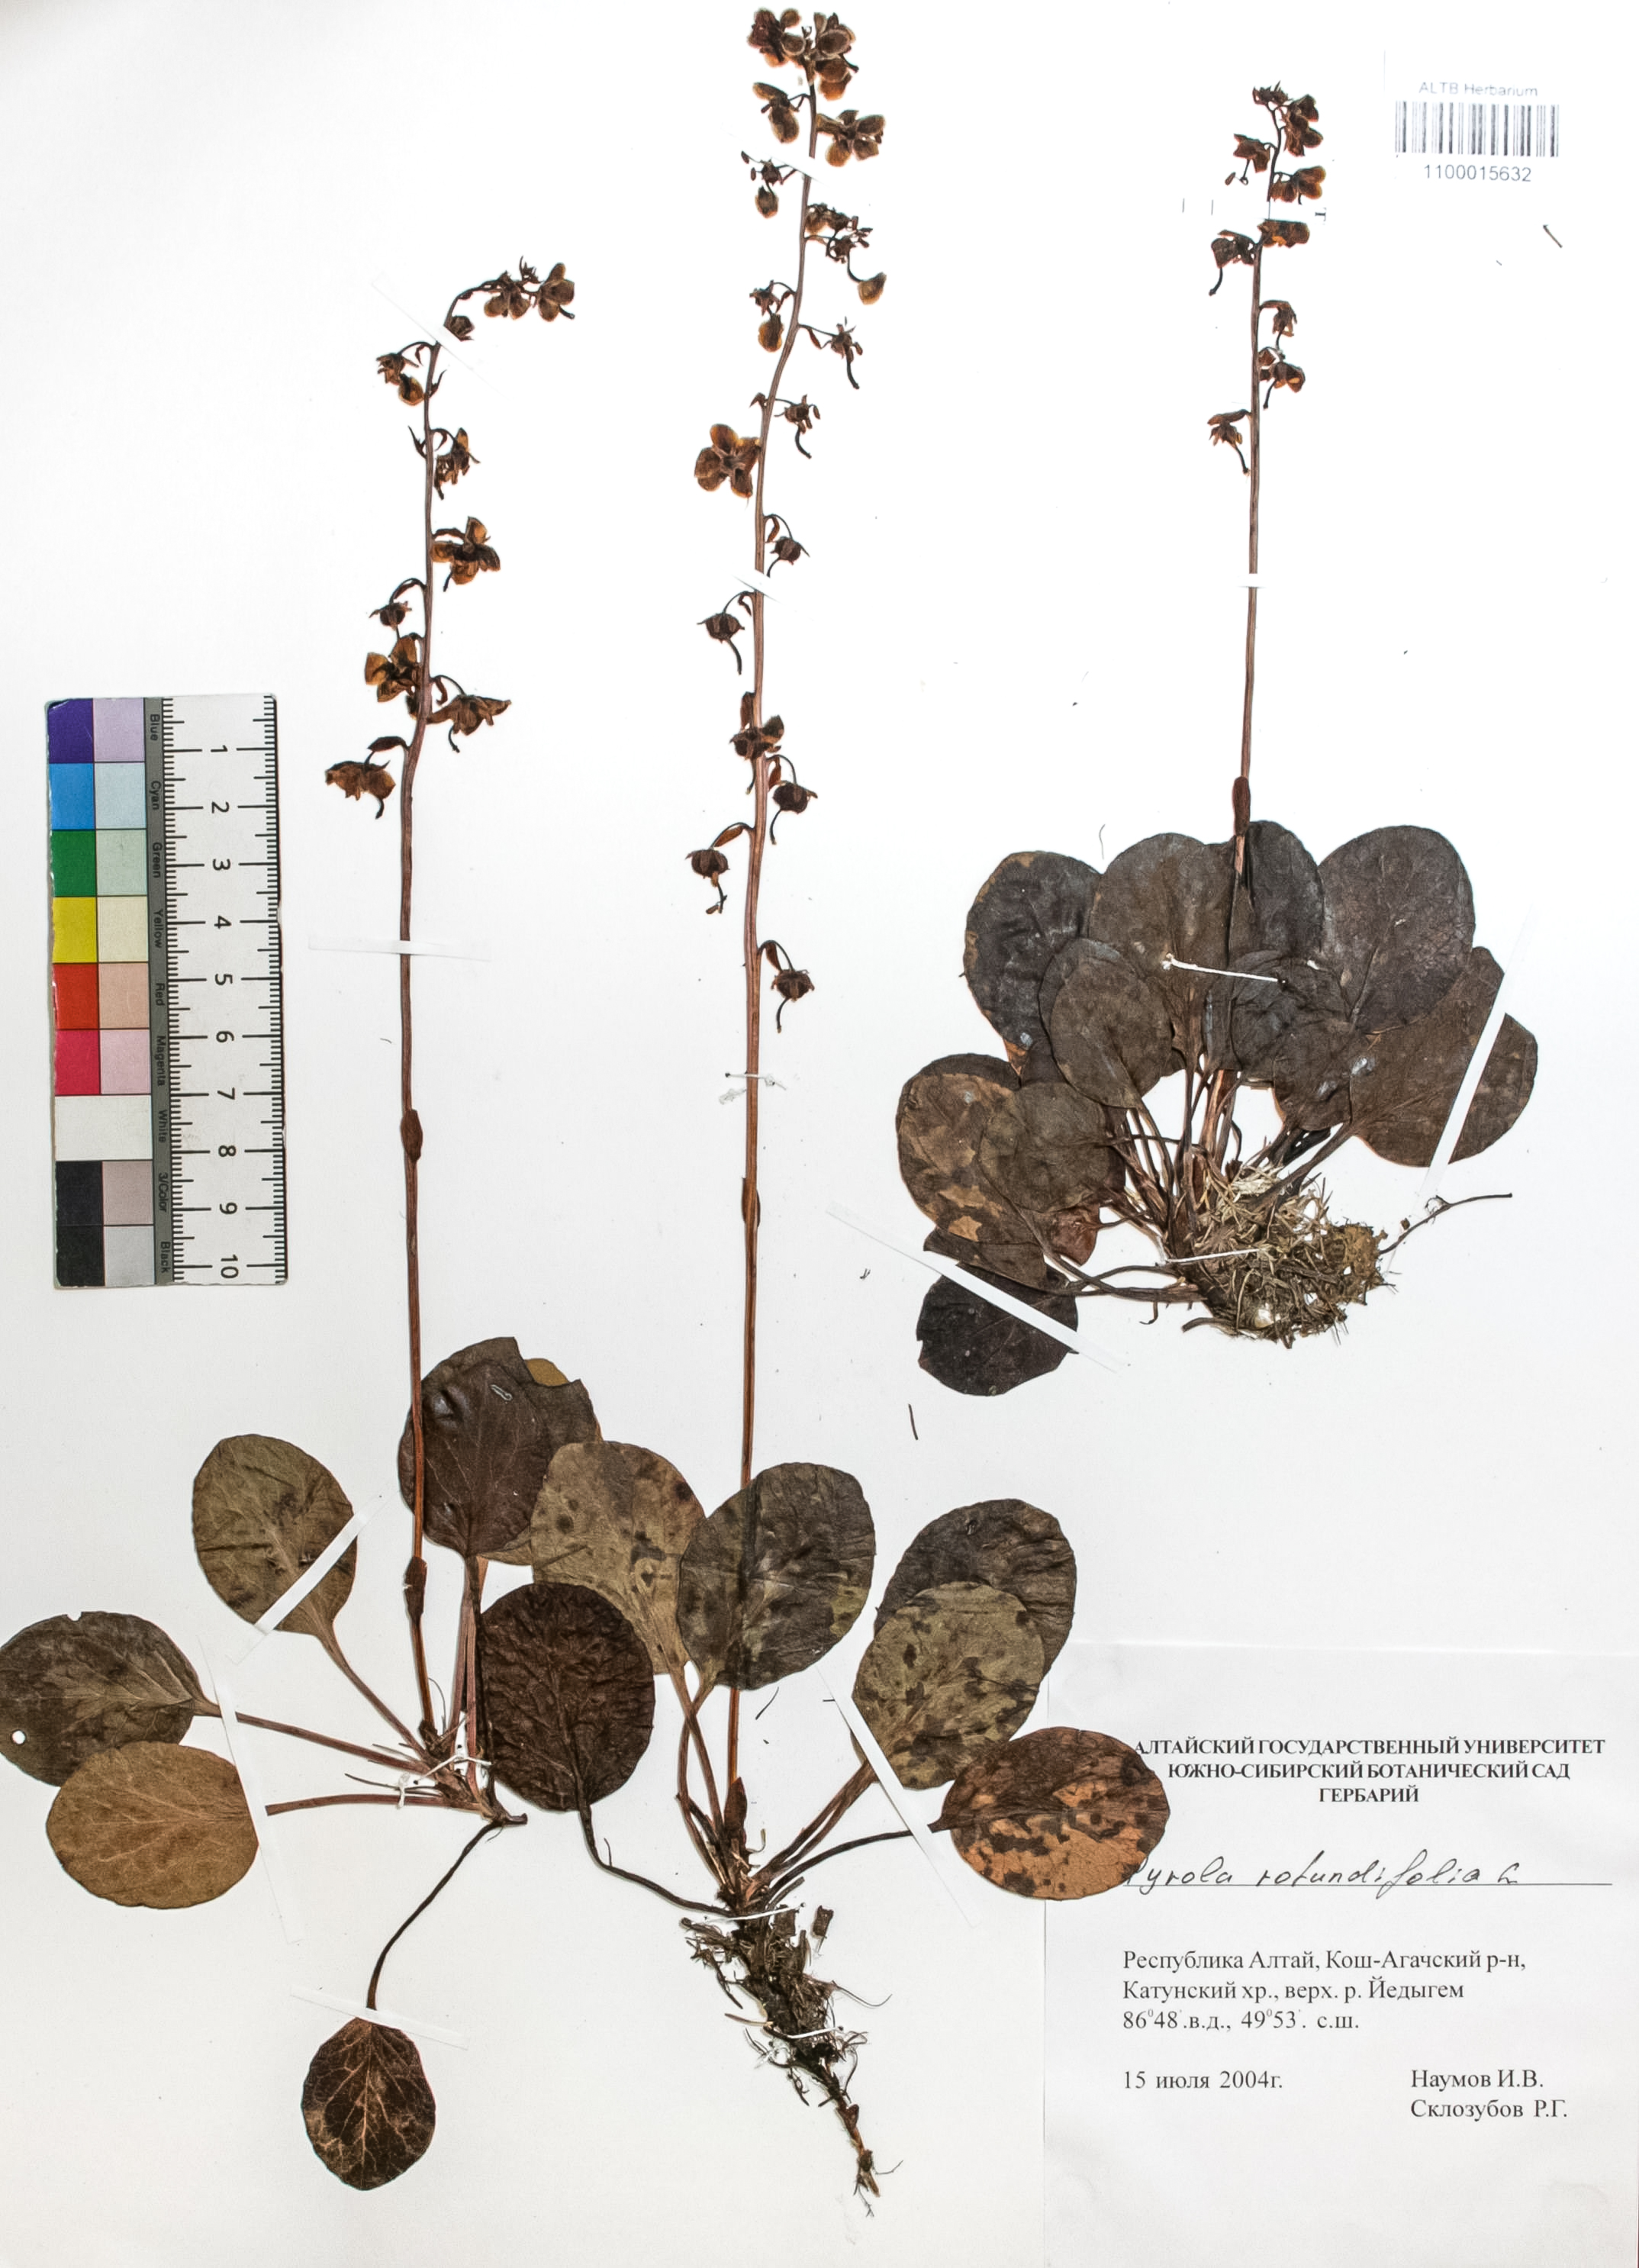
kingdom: Plantae
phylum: Tracheophyta
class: Magnoliopsida
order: Ericales
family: Ericaceae
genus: Pyrola
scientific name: Pyrola rotundifolia
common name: Round-leaved wintergreen
